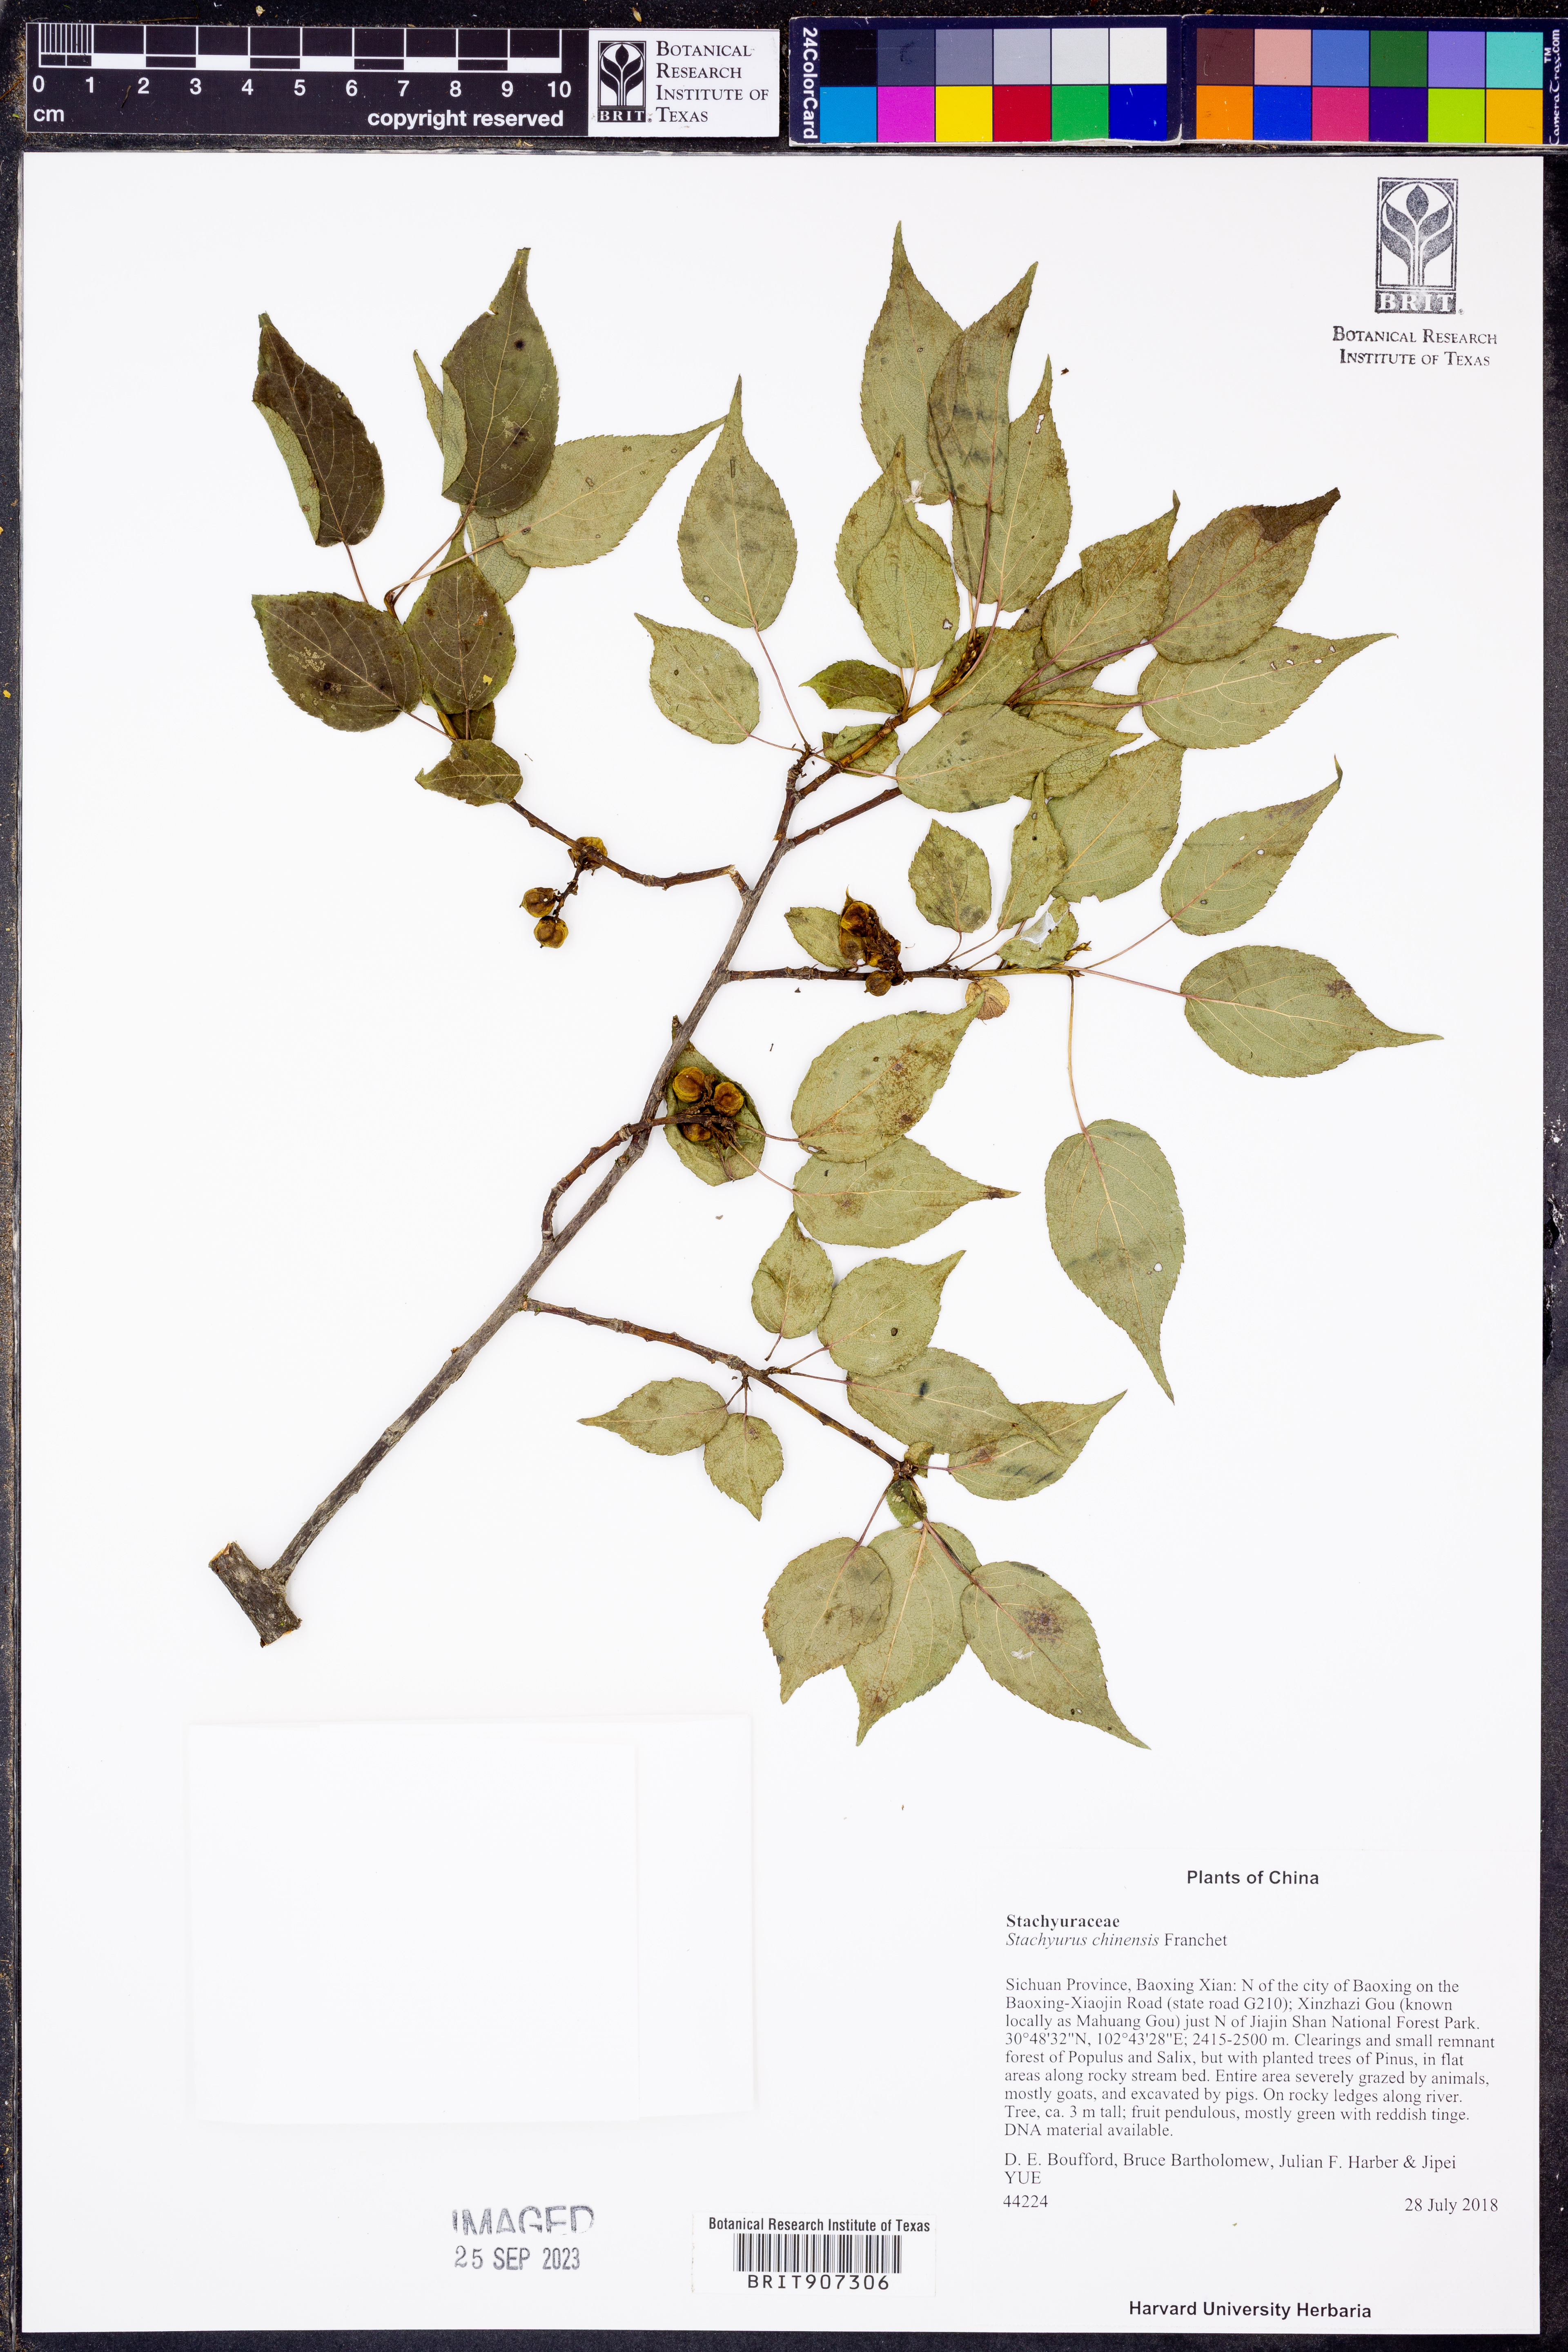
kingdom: Plantae
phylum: Tracheophyta
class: Magnoliopsida
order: Crossosomatales
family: Stachyuraceae
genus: Stachyurus
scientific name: Stachyurus chinensis
